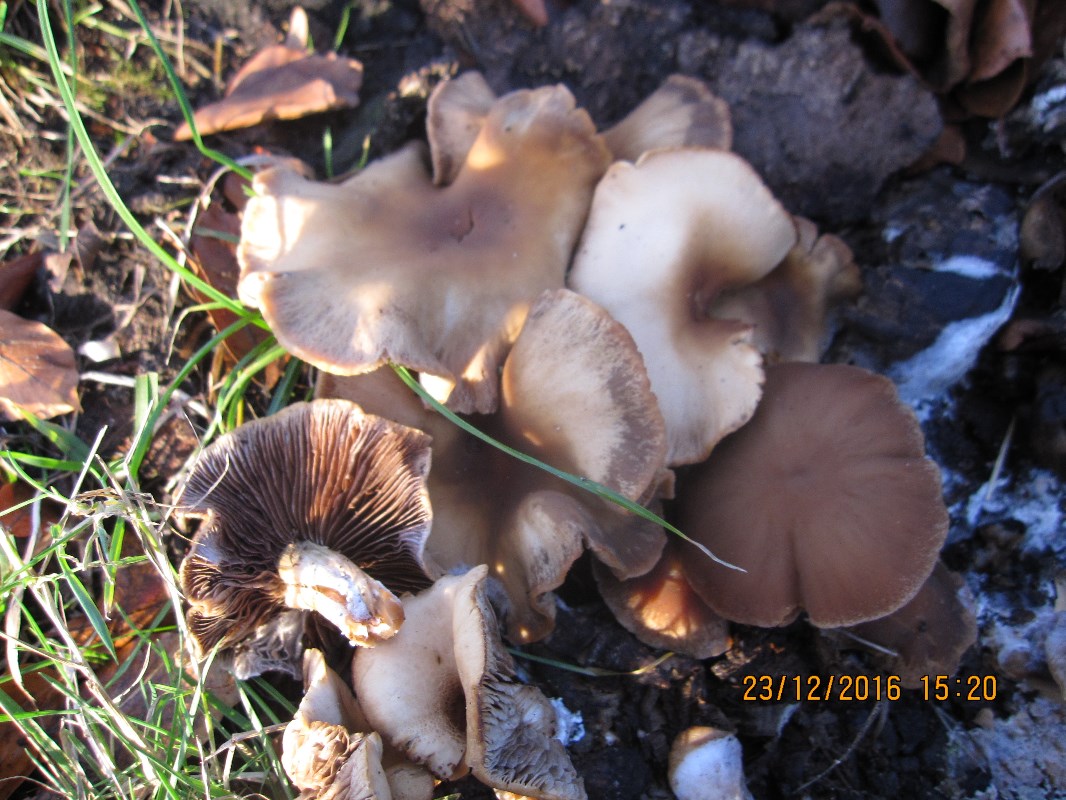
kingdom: Fungi
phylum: Basidiomycota
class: Agaricomycetes
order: Agaricales
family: Psathyrellaceae
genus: Psathyrella
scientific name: Psathyrella piluliformis
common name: lysstokket mørkhat
